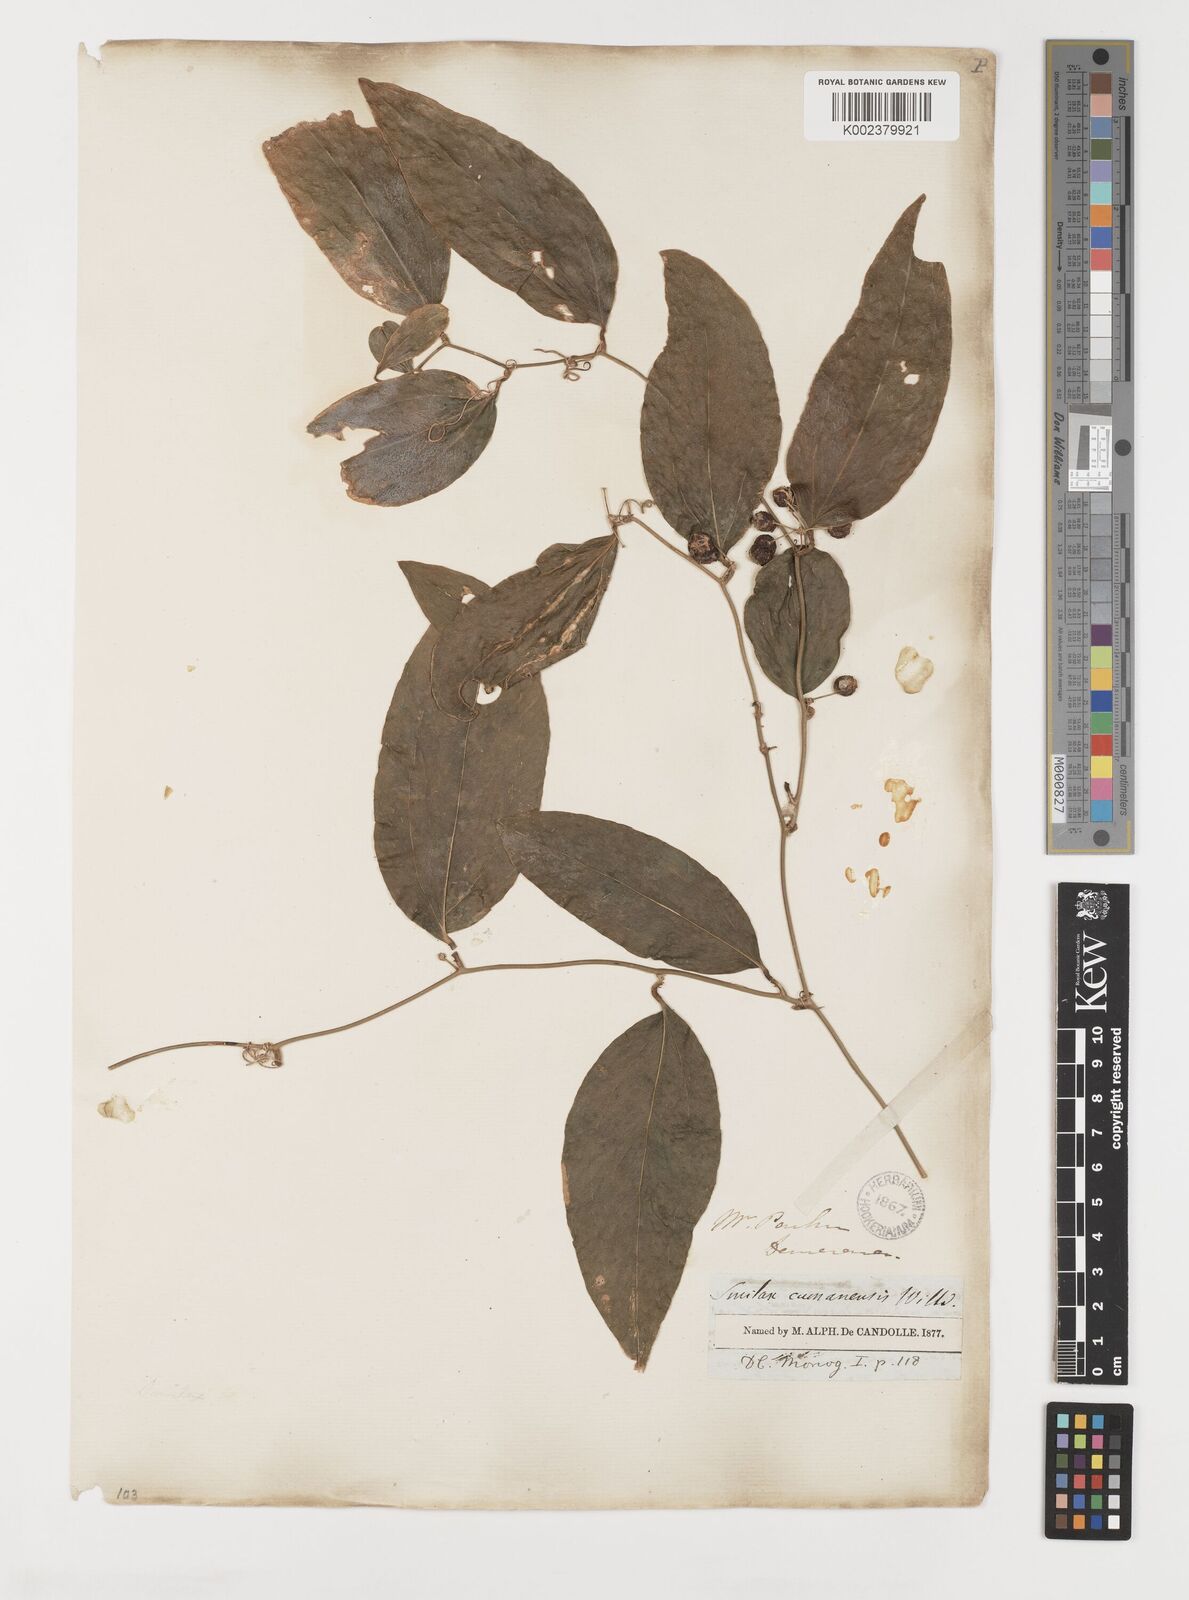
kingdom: Plantae
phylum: Tracheophyta
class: Liliopsida
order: Liliales
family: Smilacaceae
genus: Smilax
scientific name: Smilax oblongata
